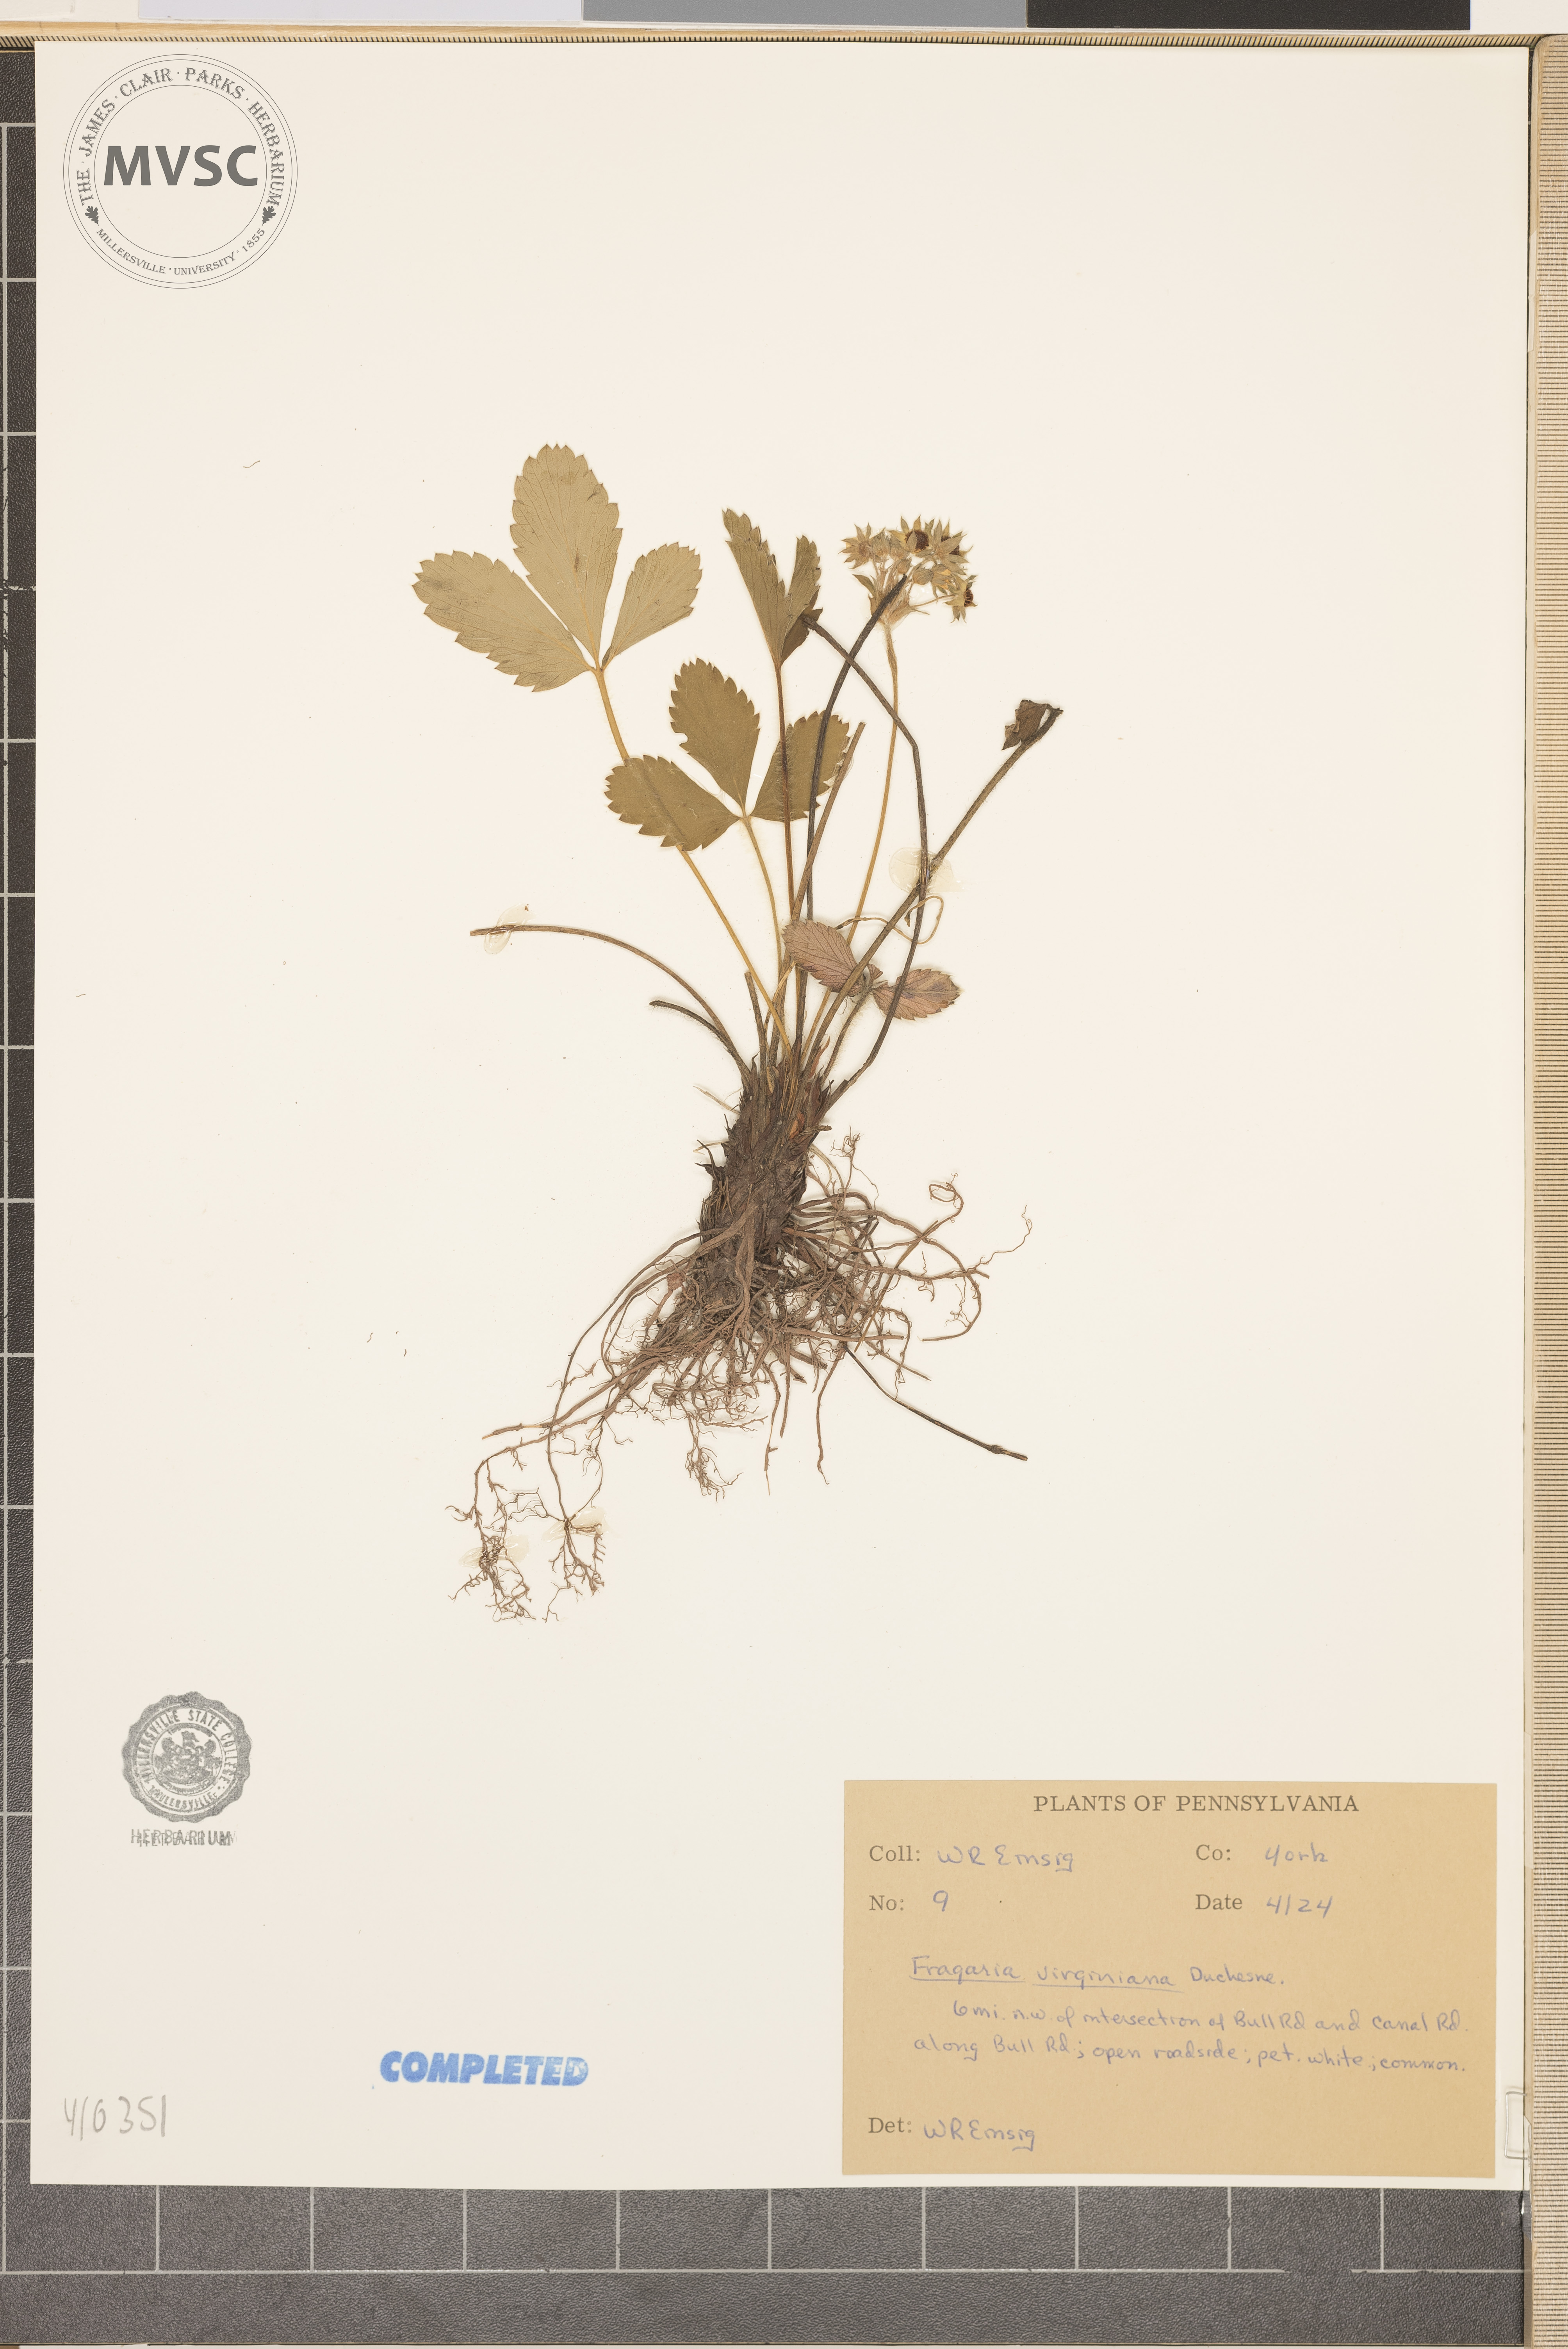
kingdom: Plantae
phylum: Tracheophyta
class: Magnoliopsida
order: Rosales
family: Rosaceae
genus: Fragaria
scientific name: Fragaria virginiana
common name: Thickleaved wild strawberry
